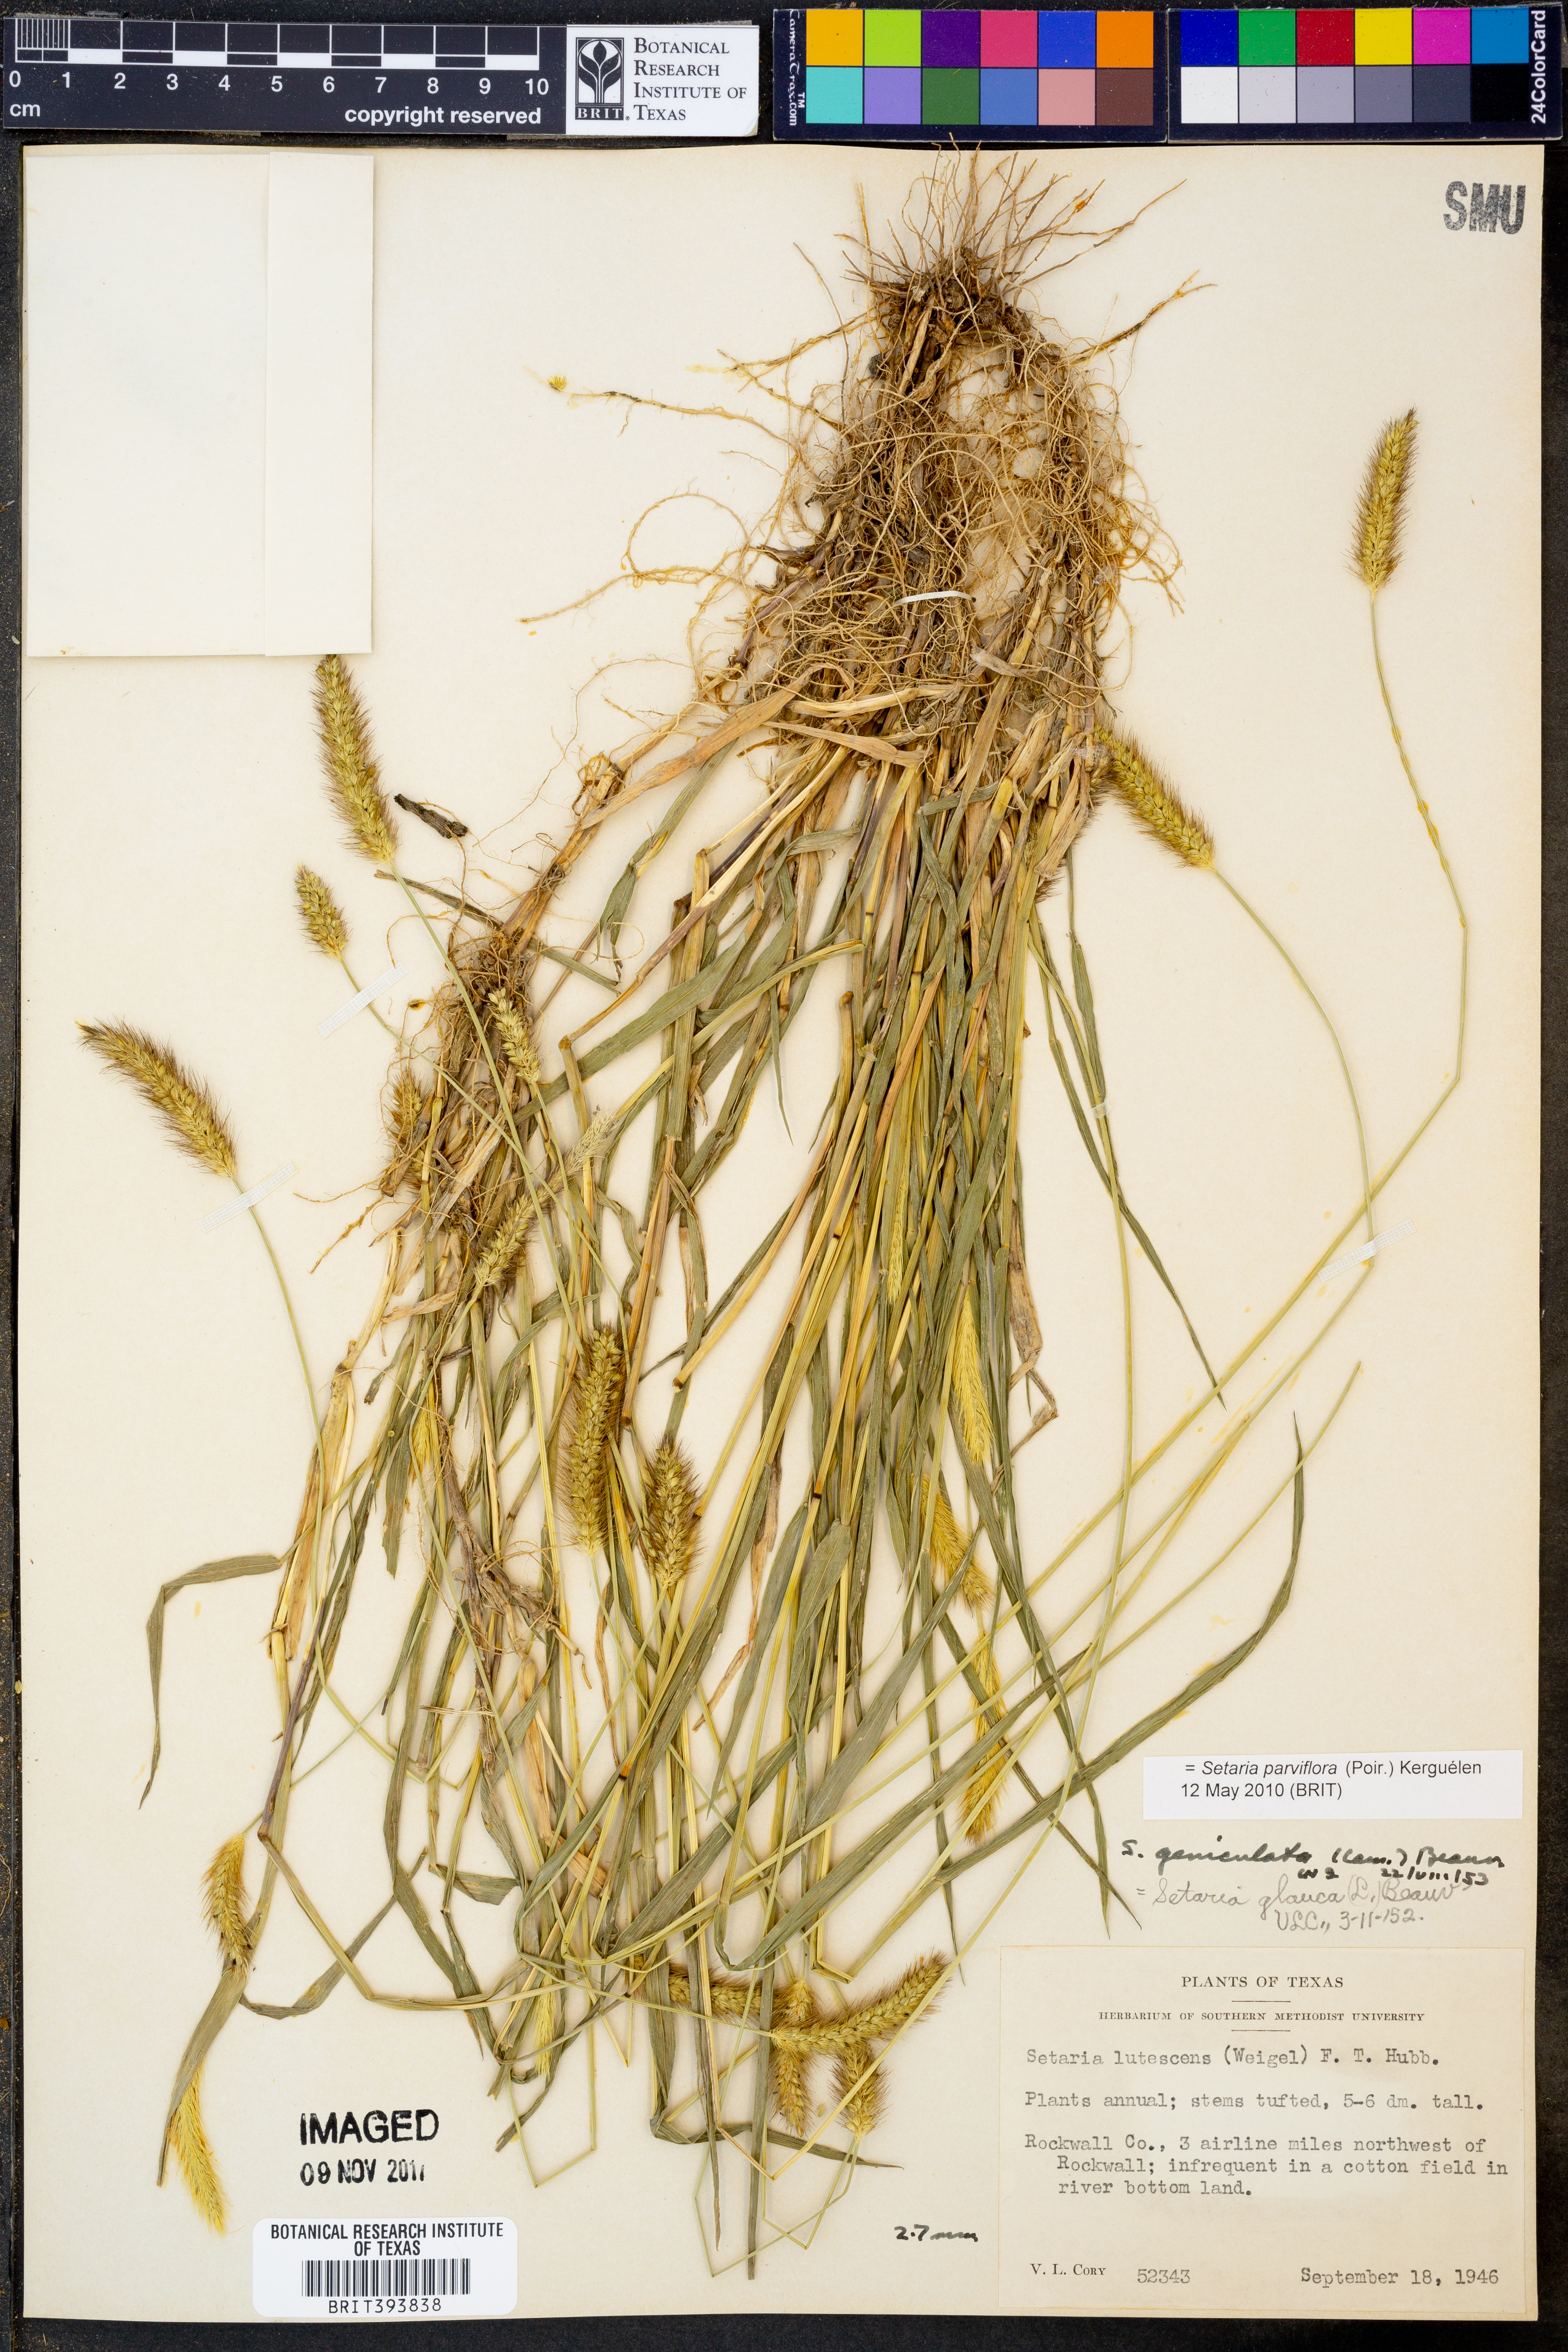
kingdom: Plantae
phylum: Tracheophyta
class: Liliopsida
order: Poales
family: Poaceae
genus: Setaria
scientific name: Setaria parviflora
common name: Knotroot bristle-grass
